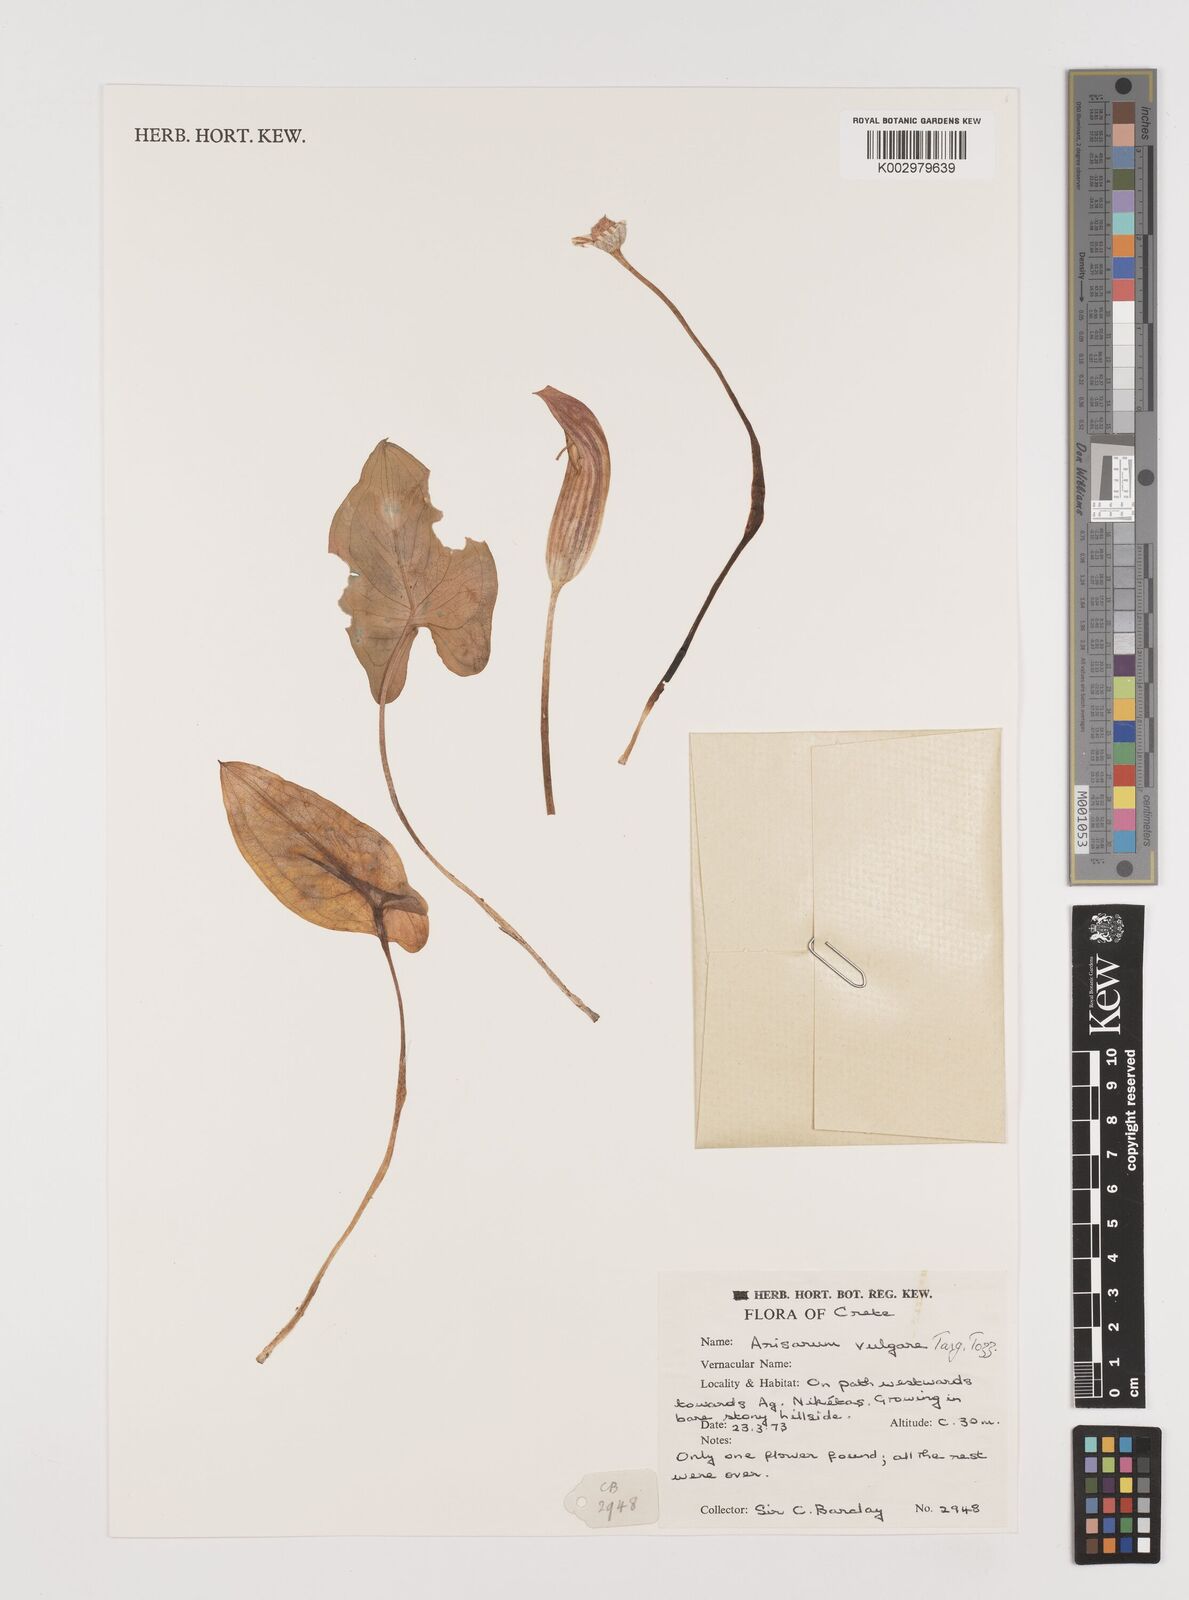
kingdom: Plantae
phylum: Tracheophyta
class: Liliopsida
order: Alismatales
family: Araceae
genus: Arisarum
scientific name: Arisarum vulgare
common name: Common arisarum
